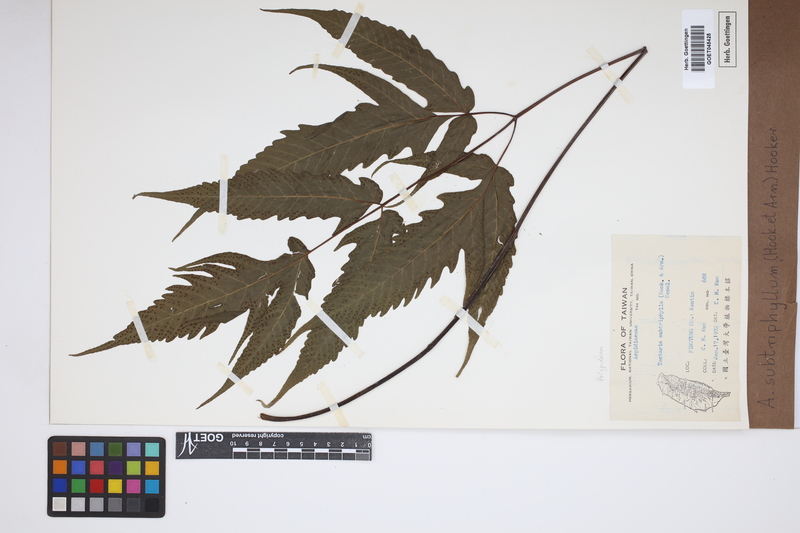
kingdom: Plantae
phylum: Tracheophyta
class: Polypodiopsida
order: Polypodiales
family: Tectariaceae
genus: Tectaria
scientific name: Tectaria subtriphylla
